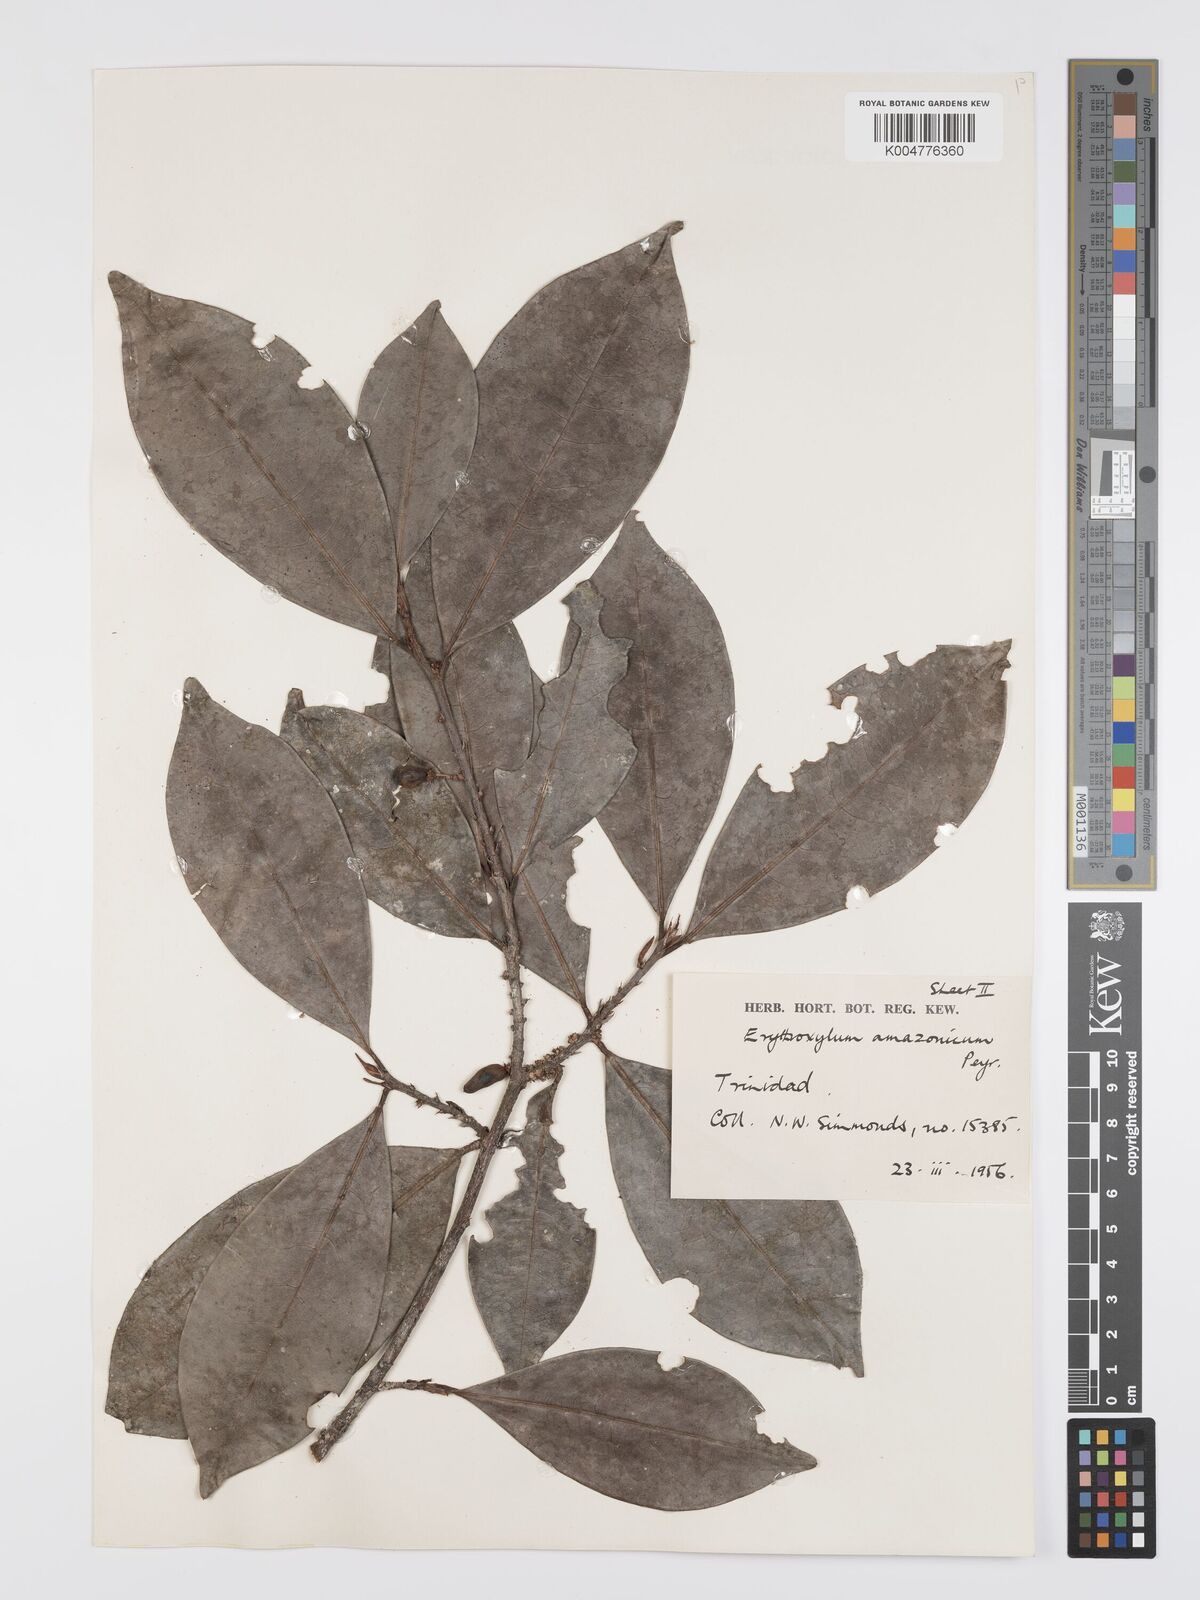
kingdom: Plantae
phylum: Tracheophyta
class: Magnoliopsida
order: Malpighiales
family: Erythroxylaceae
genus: Erythroxylum
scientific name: Erythroxylum amazonicum
